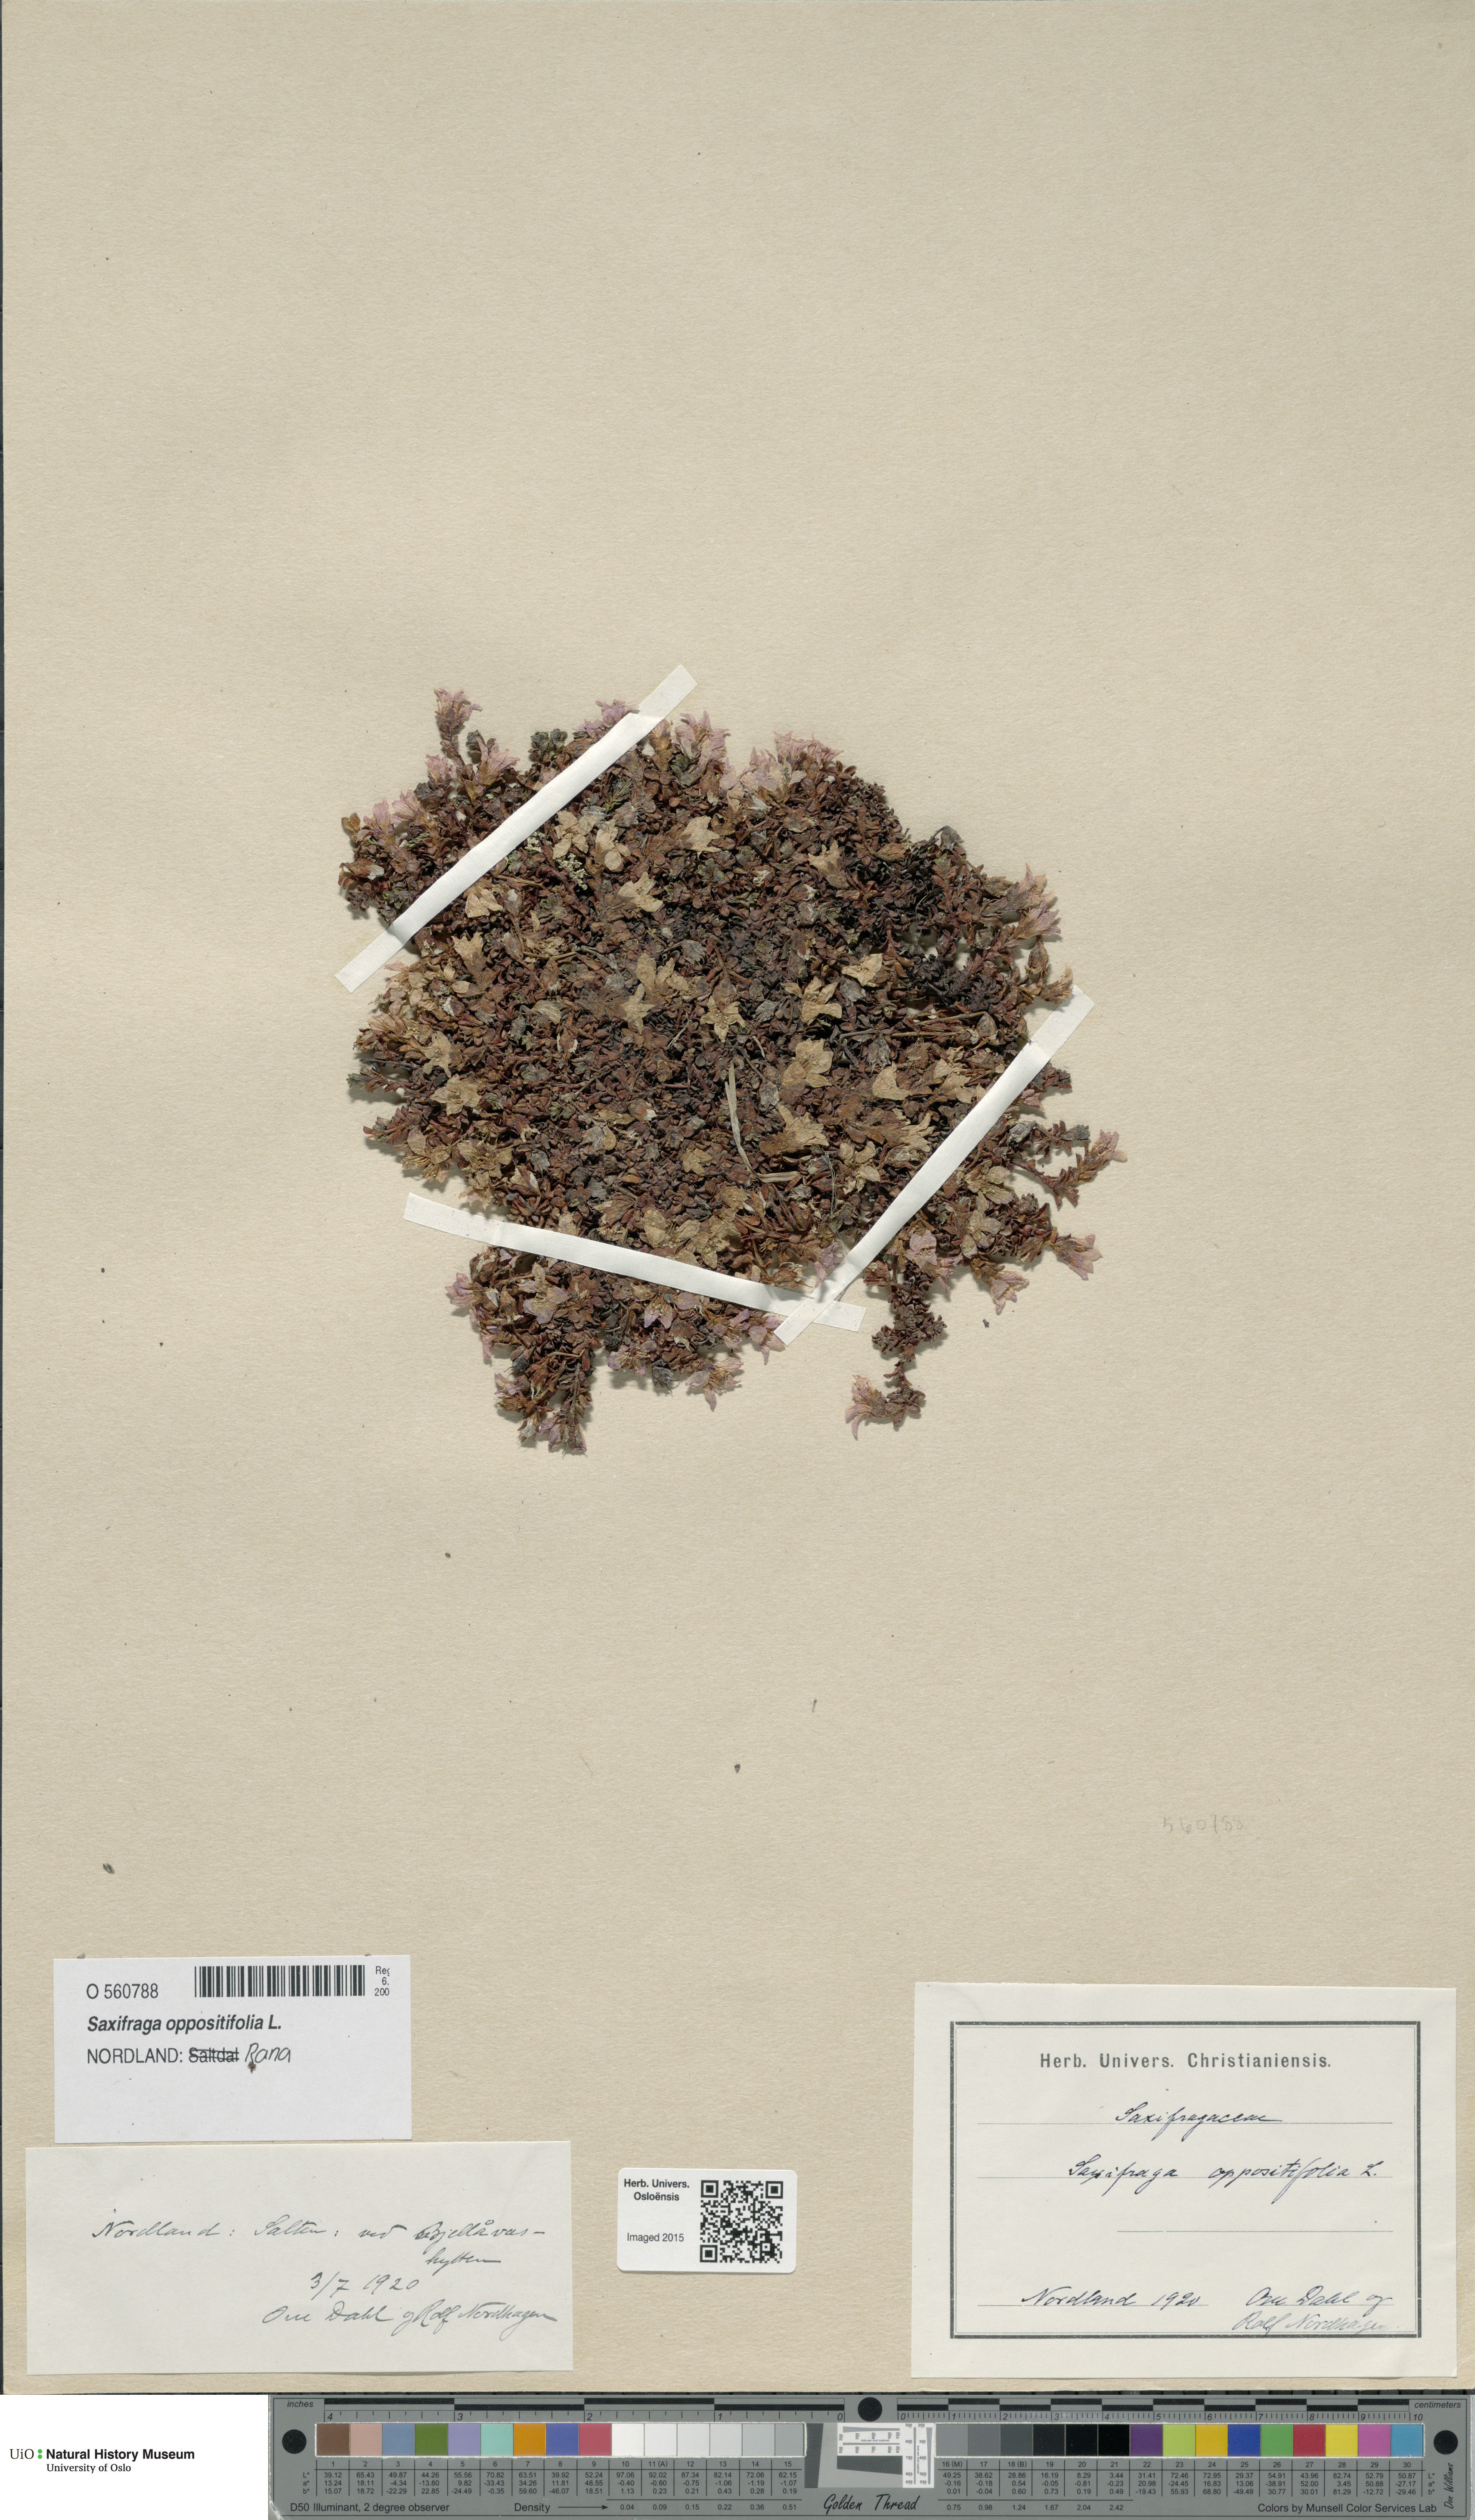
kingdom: Plantae
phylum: Tracheophyta
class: Magnoliopsida
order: Saxifragales
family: Saxifragaceae
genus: Saxifraga
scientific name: Saxifraga oppositifolia
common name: Purple saxifrage
